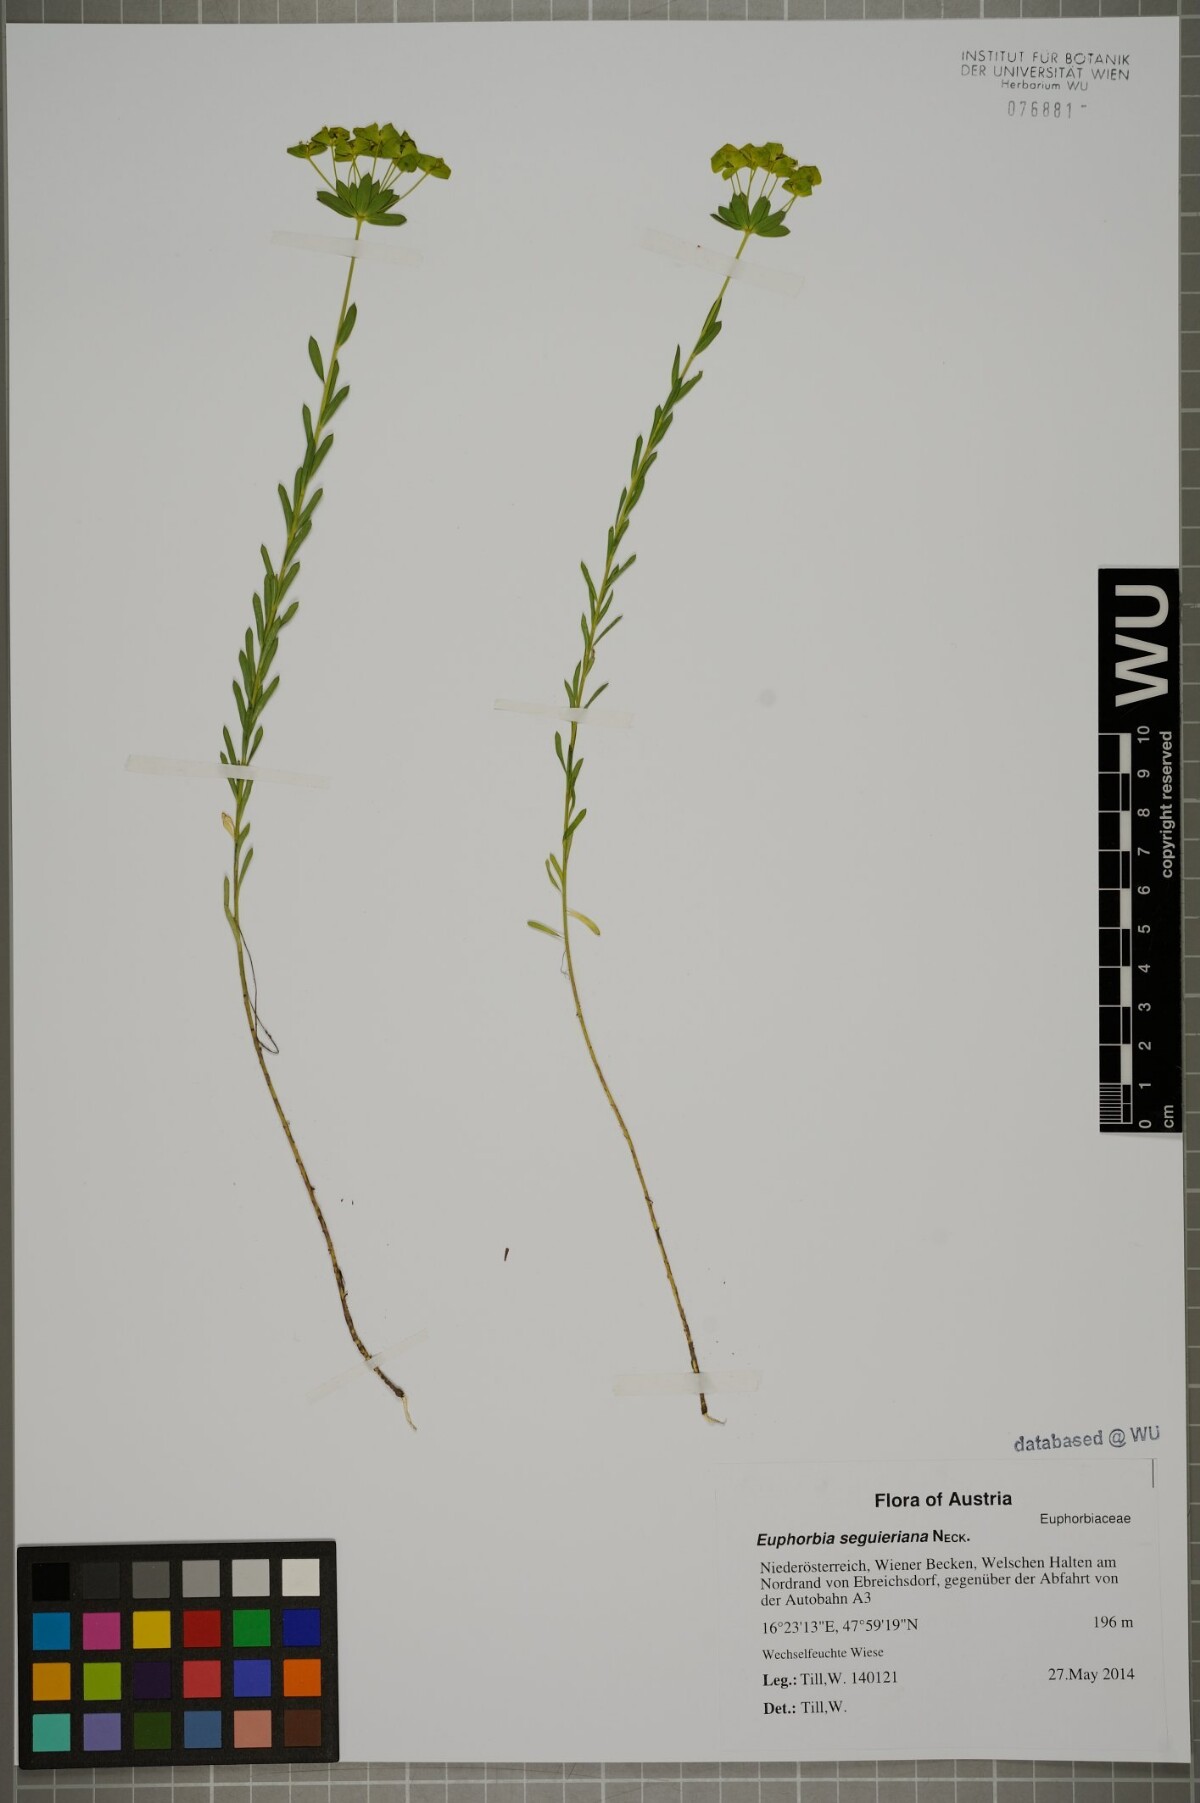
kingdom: Plantae
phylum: Tracheophyta
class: Magnoliopsida
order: Malpighiales
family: Euphorbiaceae
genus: Euphorbia
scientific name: Euphorbia seguieriana
